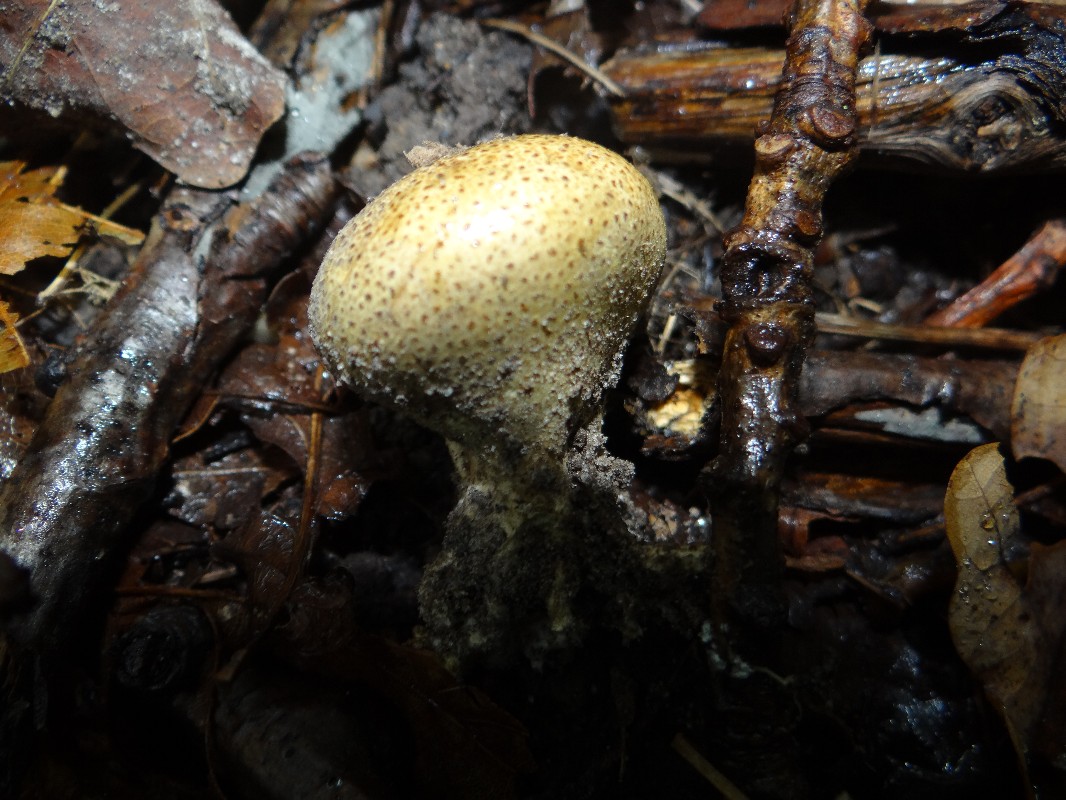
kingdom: Fungi
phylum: Basidiomycota
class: Agaricomycetes
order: Agaricales
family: Lycoperdaceae
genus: Apioperdon
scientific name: Apioperdon pyriforme
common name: pære-støvbold
